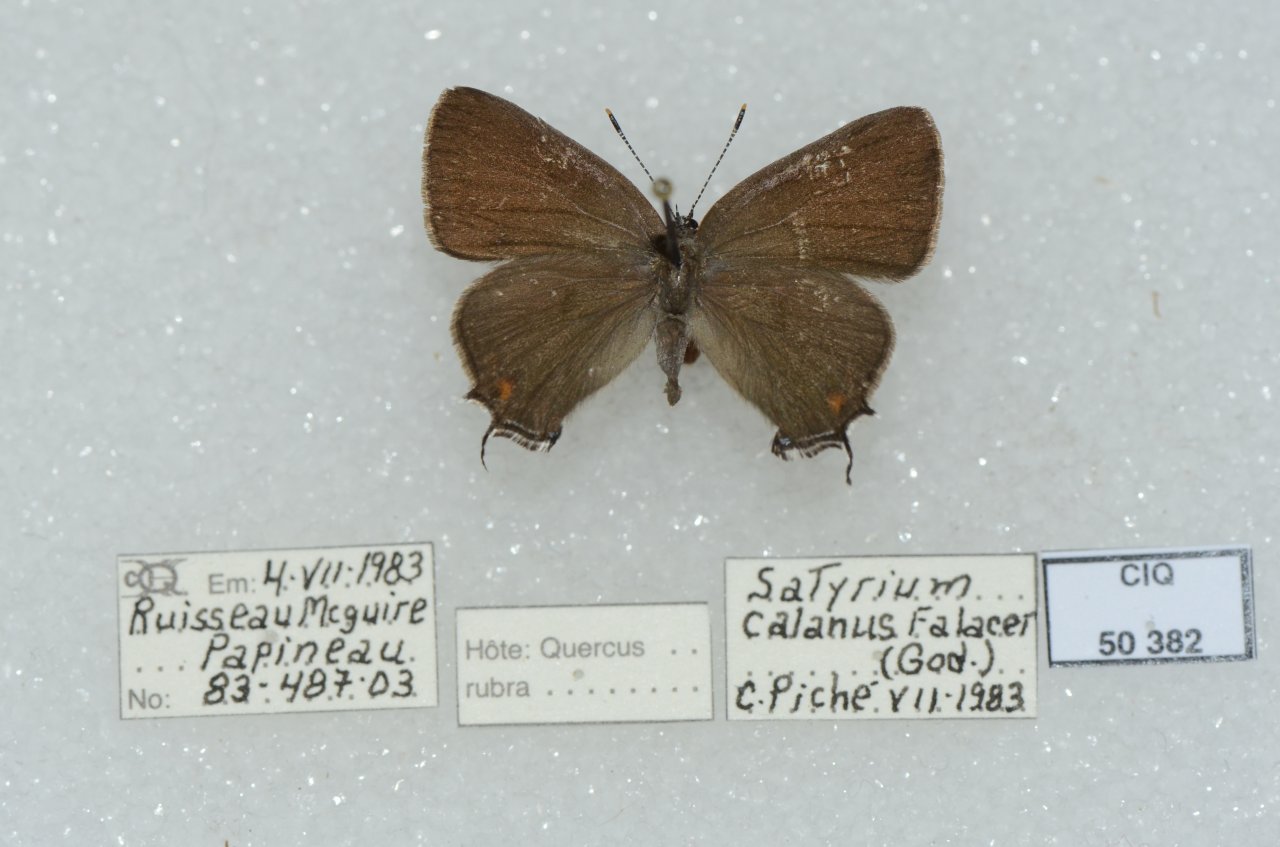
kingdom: Animalia
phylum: Arthropoda
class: Insecta
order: Lepidoptera
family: Lycaenidae
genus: Satyrium
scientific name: Satyrium calanus
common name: Banded Hairstreak
